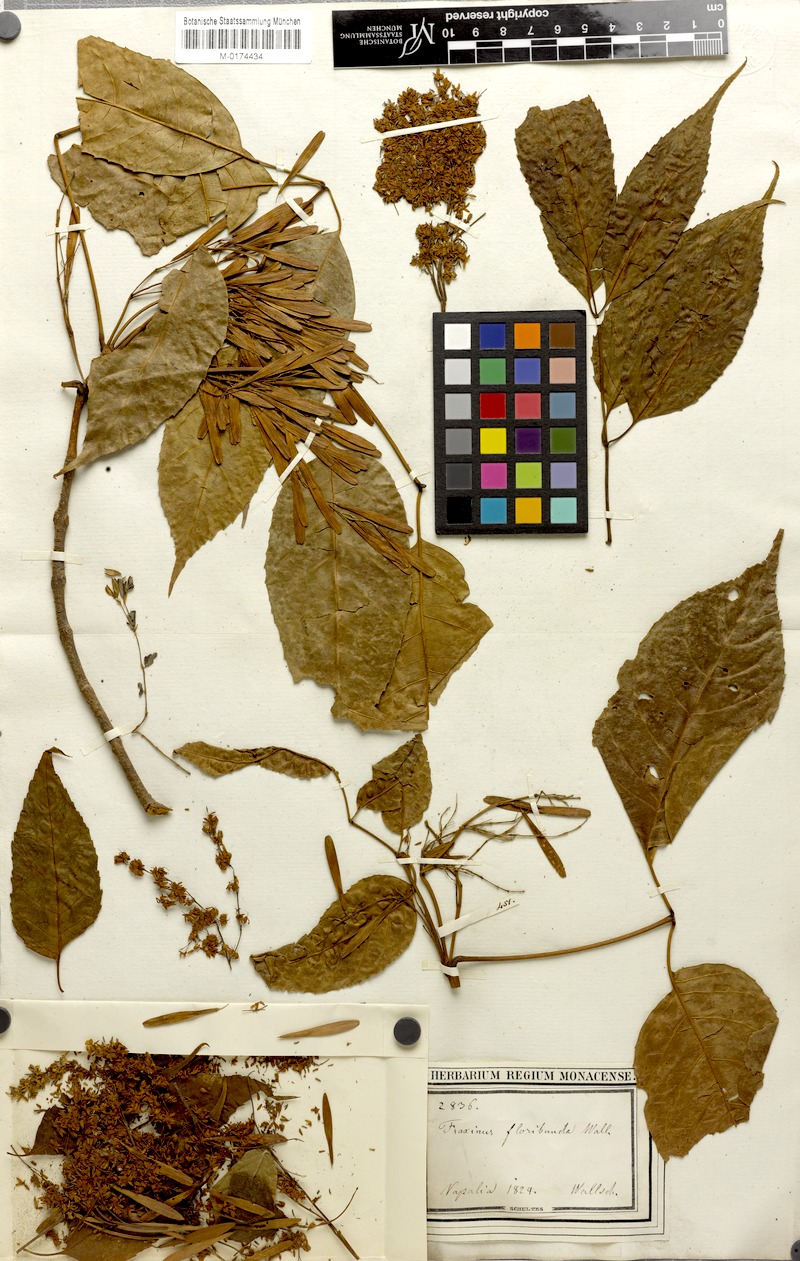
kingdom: Plantae
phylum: Tracheophyta
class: Magnoliopsida
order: Lamiales
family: Oleaceae
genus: Fraxinus
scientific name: Fraxinus floribunda
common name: East indian ash
